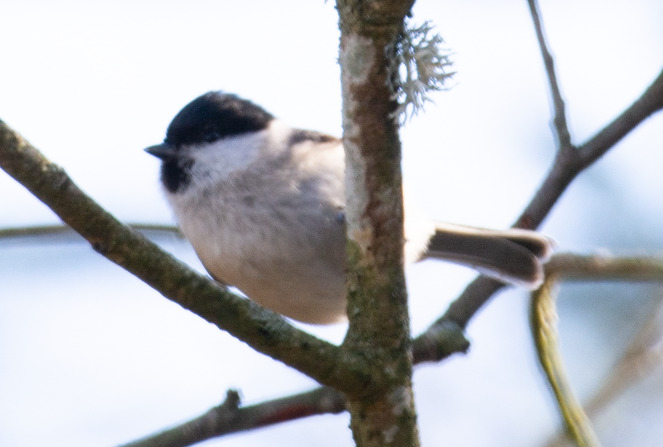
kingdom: Animalia
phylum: Chordata
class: Aves
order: Passeriformes
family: Paridae
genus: Poecile
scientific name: Poecile palustris
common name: Sumpmejse
